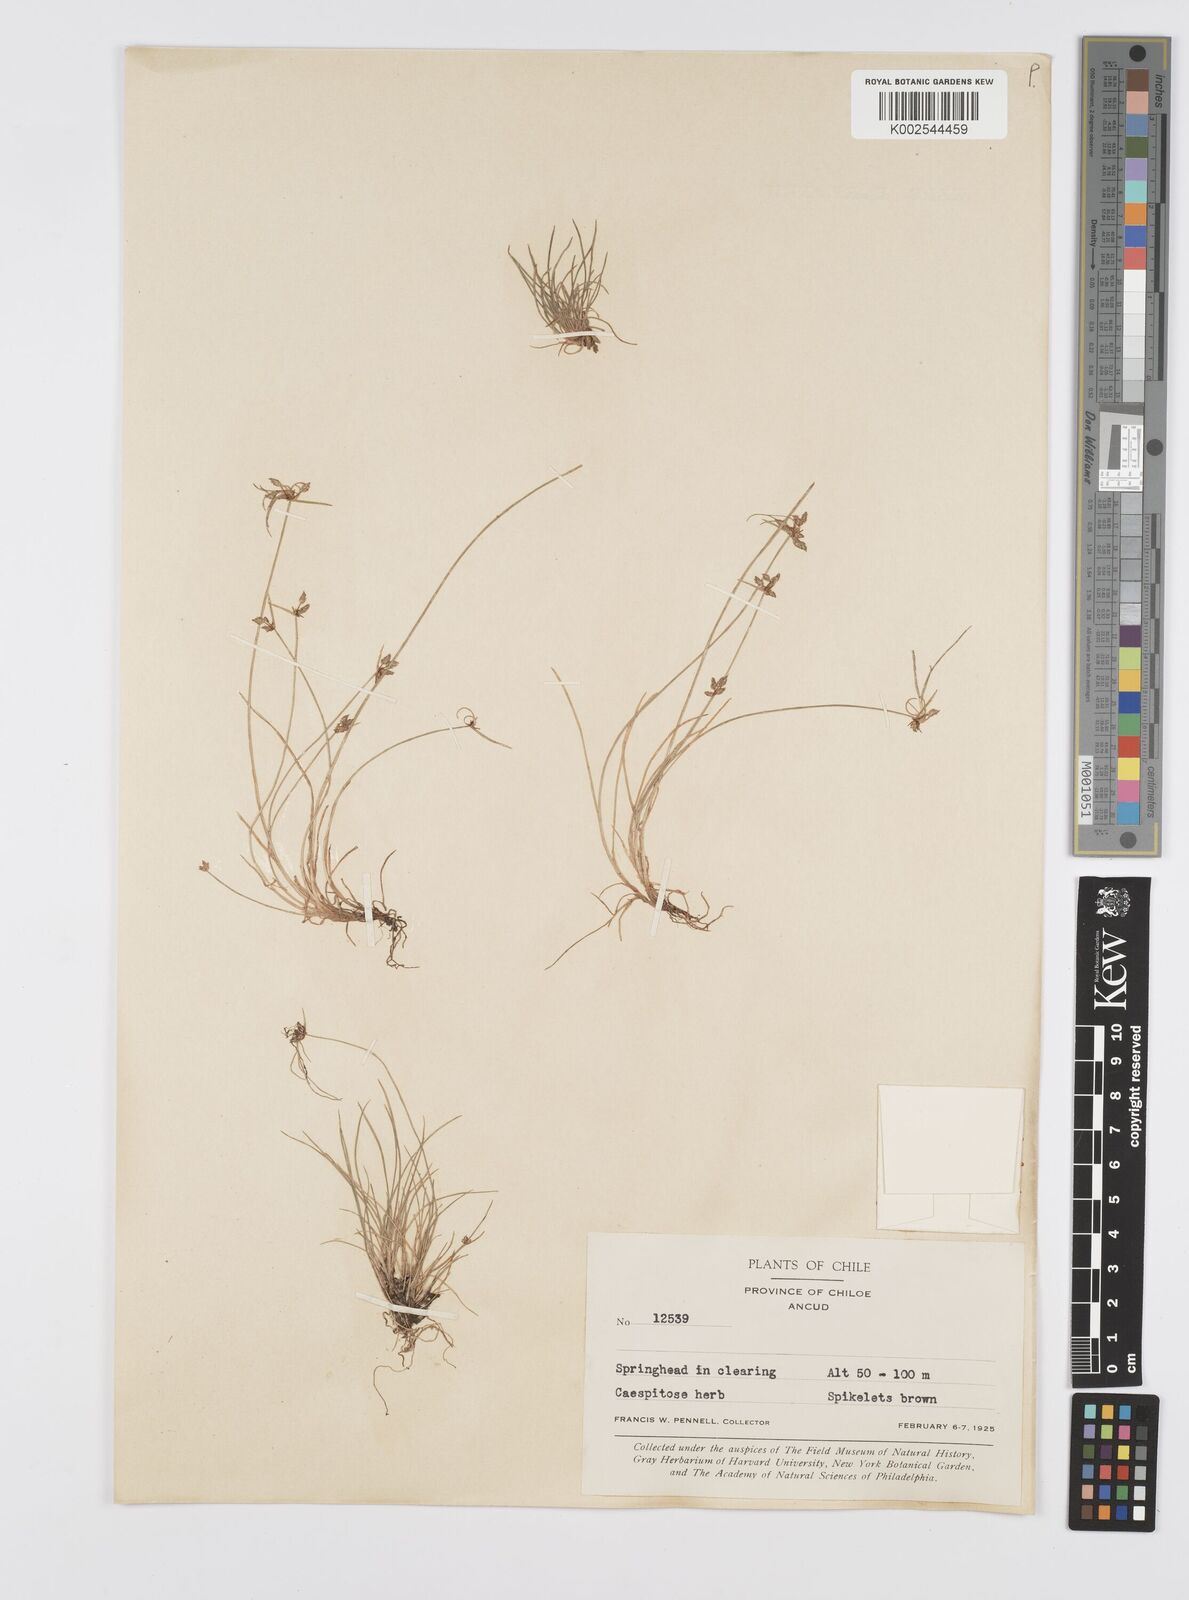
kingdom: Plantae
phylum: Tracheophyta
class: Liliopsida
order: Poales
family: Cyperaceae
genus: Cyperus
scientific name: Cyperus
